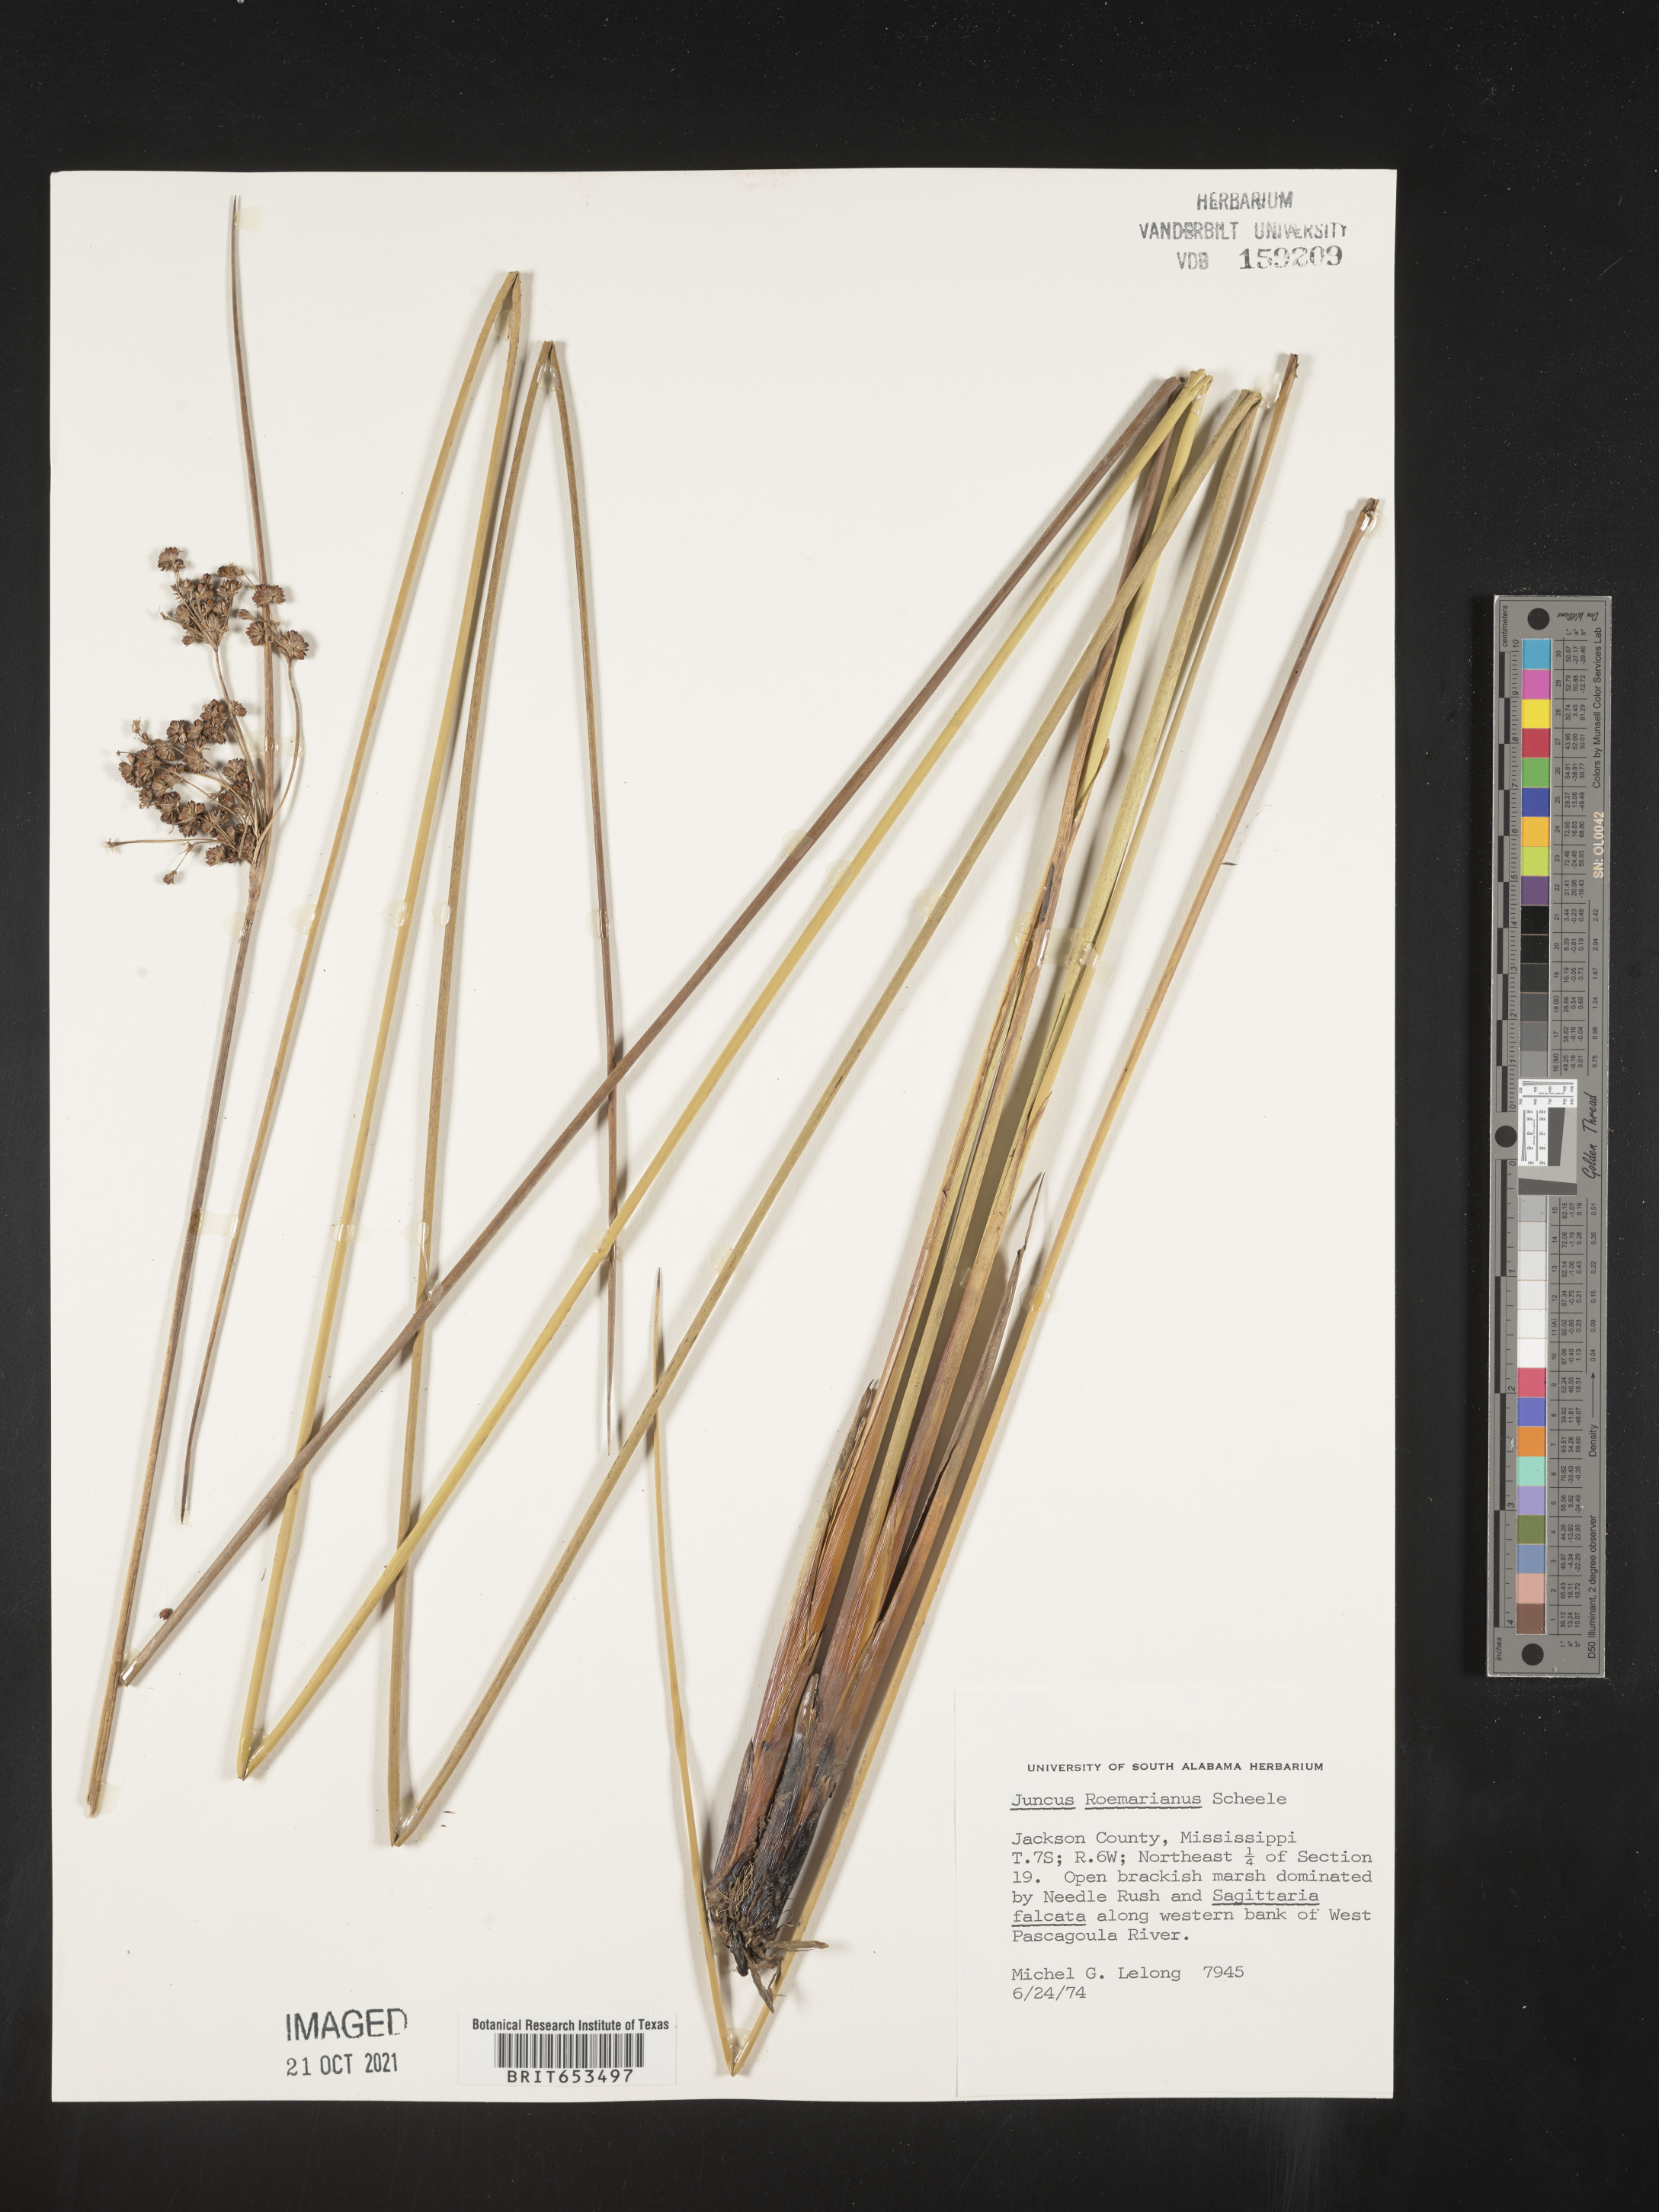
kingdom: Plantae
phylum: Tracheophyta
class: Liliopsida
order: Poales
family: Juncaceae
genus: Juncus
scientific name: Juncus roemerianus
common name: Roemer's rush
